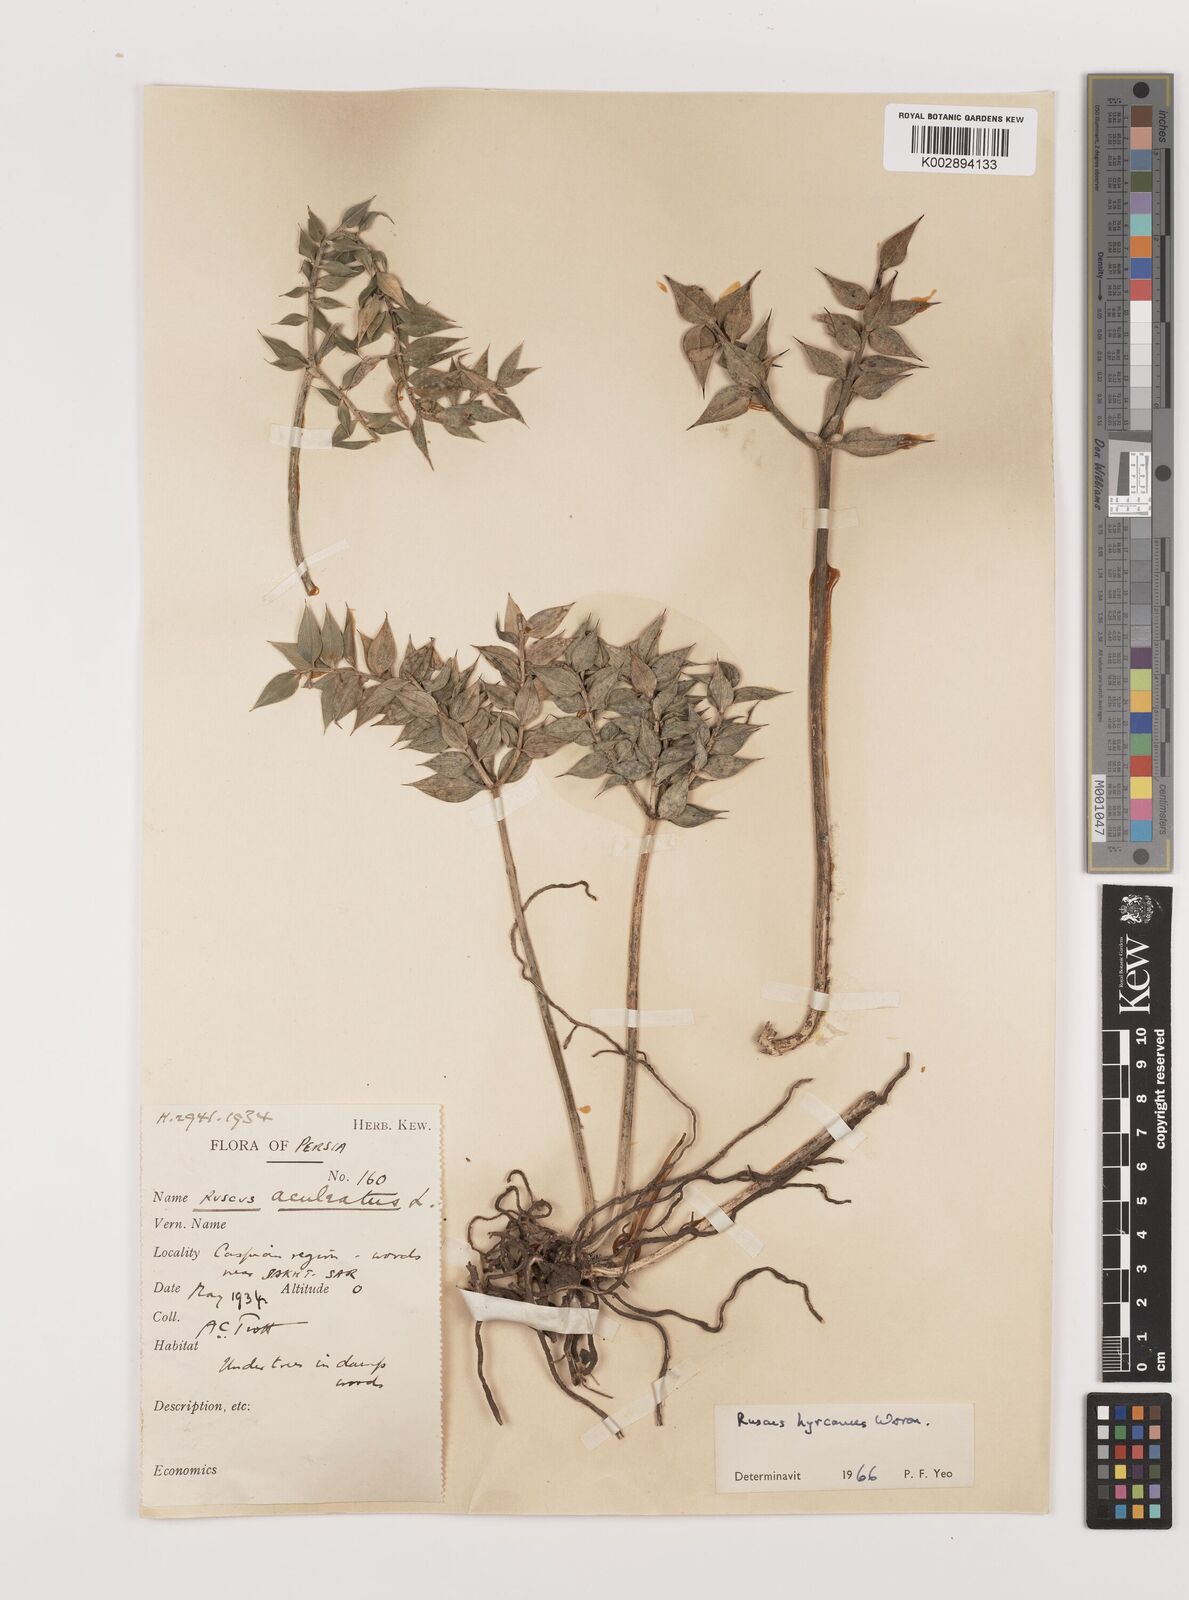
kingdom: Plantae
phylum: Tracheophyta
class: Liliopsida
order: Asparagales
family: Asparagaceae
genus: Ruscus
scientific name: Ruscus hyrcanus
